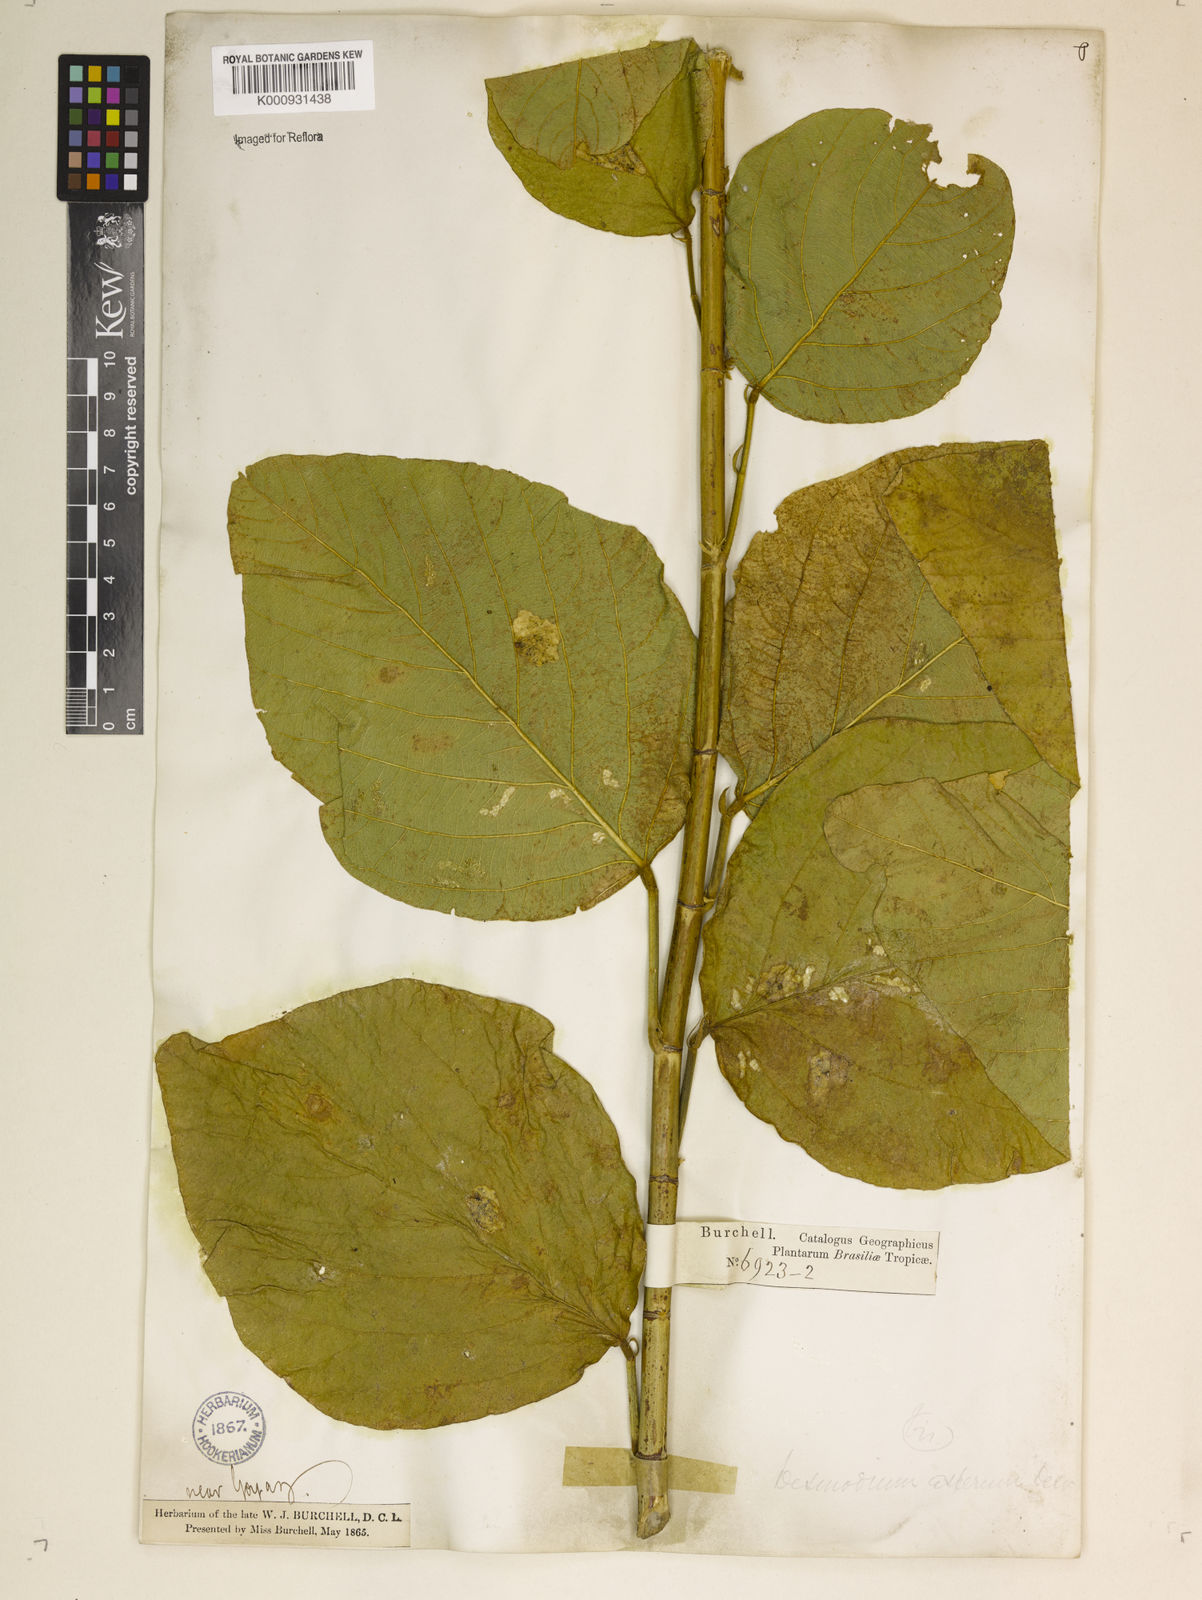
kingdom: Plantae
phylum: Tracheophyta
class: Magnoliopsida
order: Fabales
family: Fabaceae
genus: Desmodium
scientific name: Desmodium distortum
